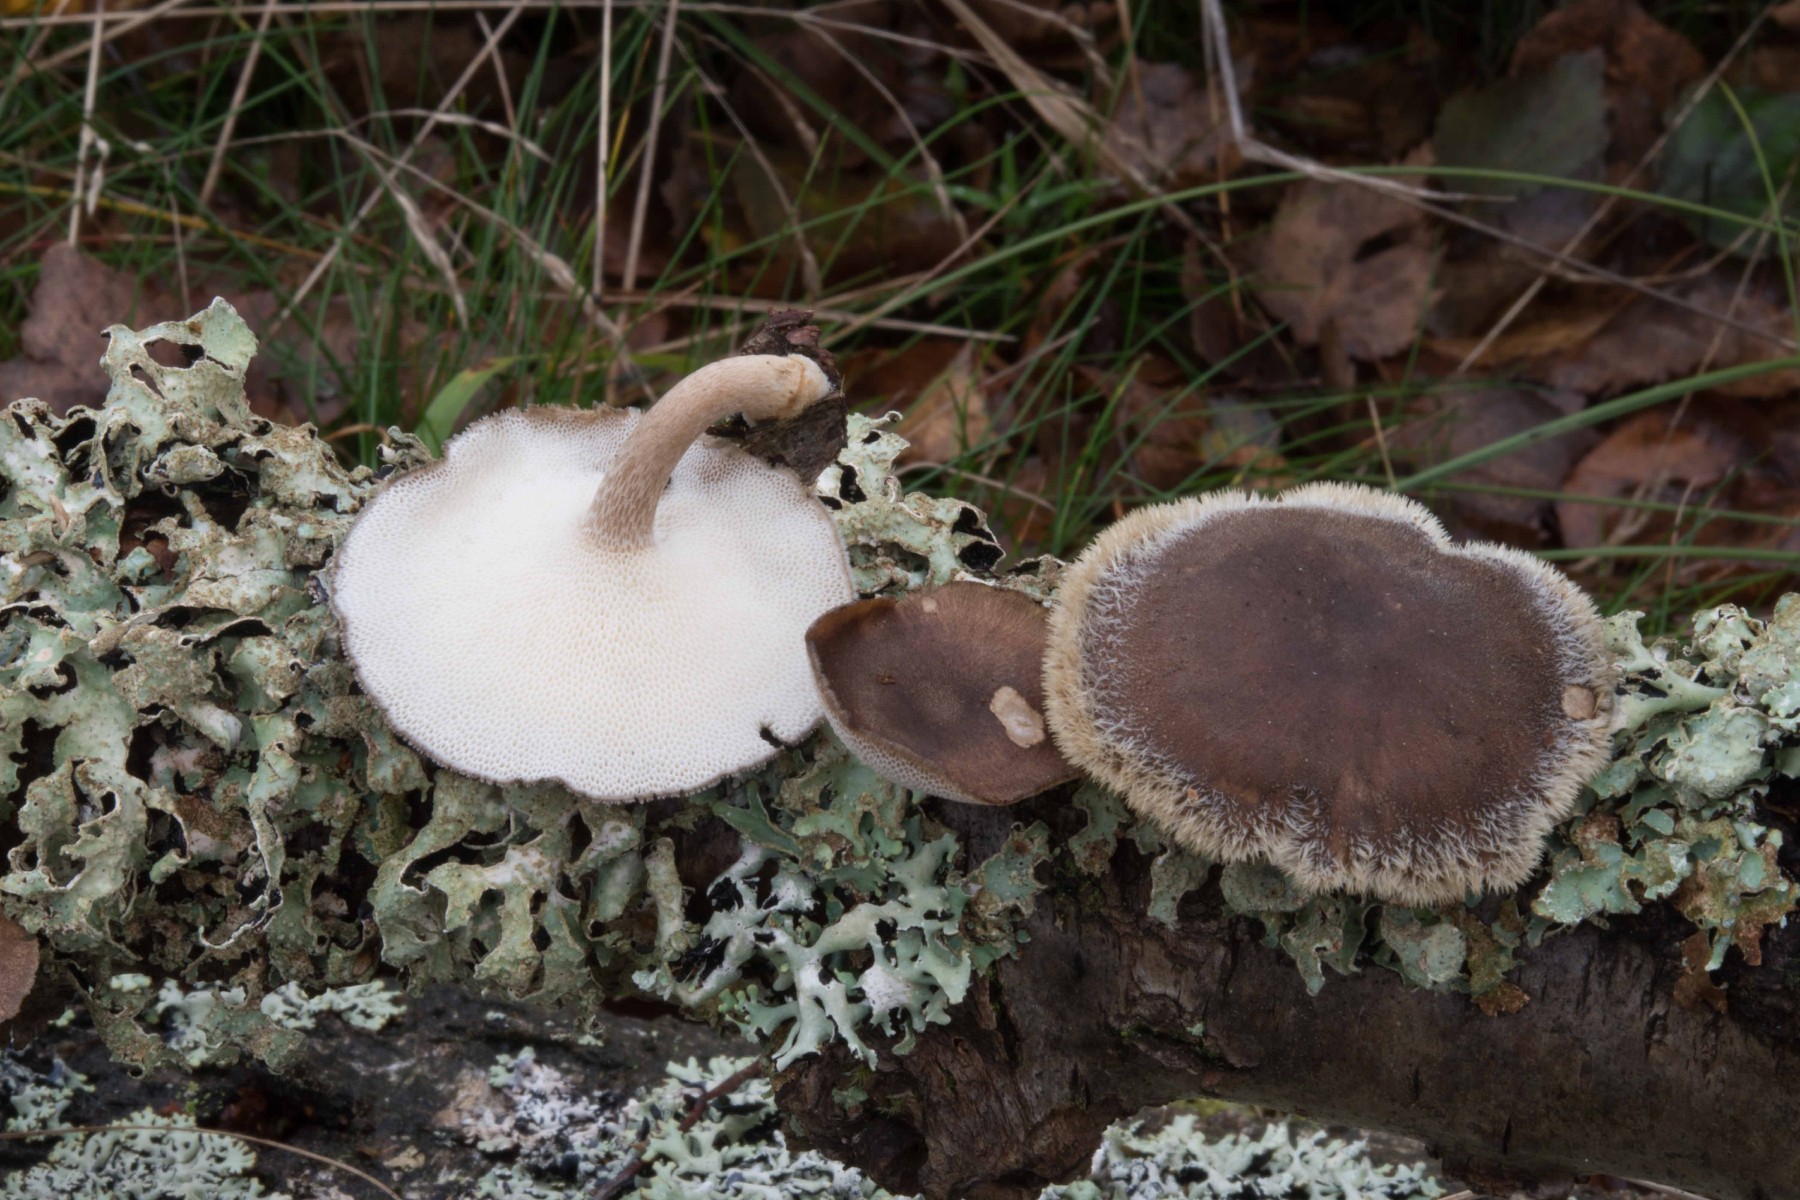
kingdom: Fungi
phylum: Basidiomycota
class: Agaricomycetes
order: Polyporales
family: Polyporaceae
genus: Lentinus
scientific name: Lentinus brumalis
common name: vinter-stilkporesvamp
